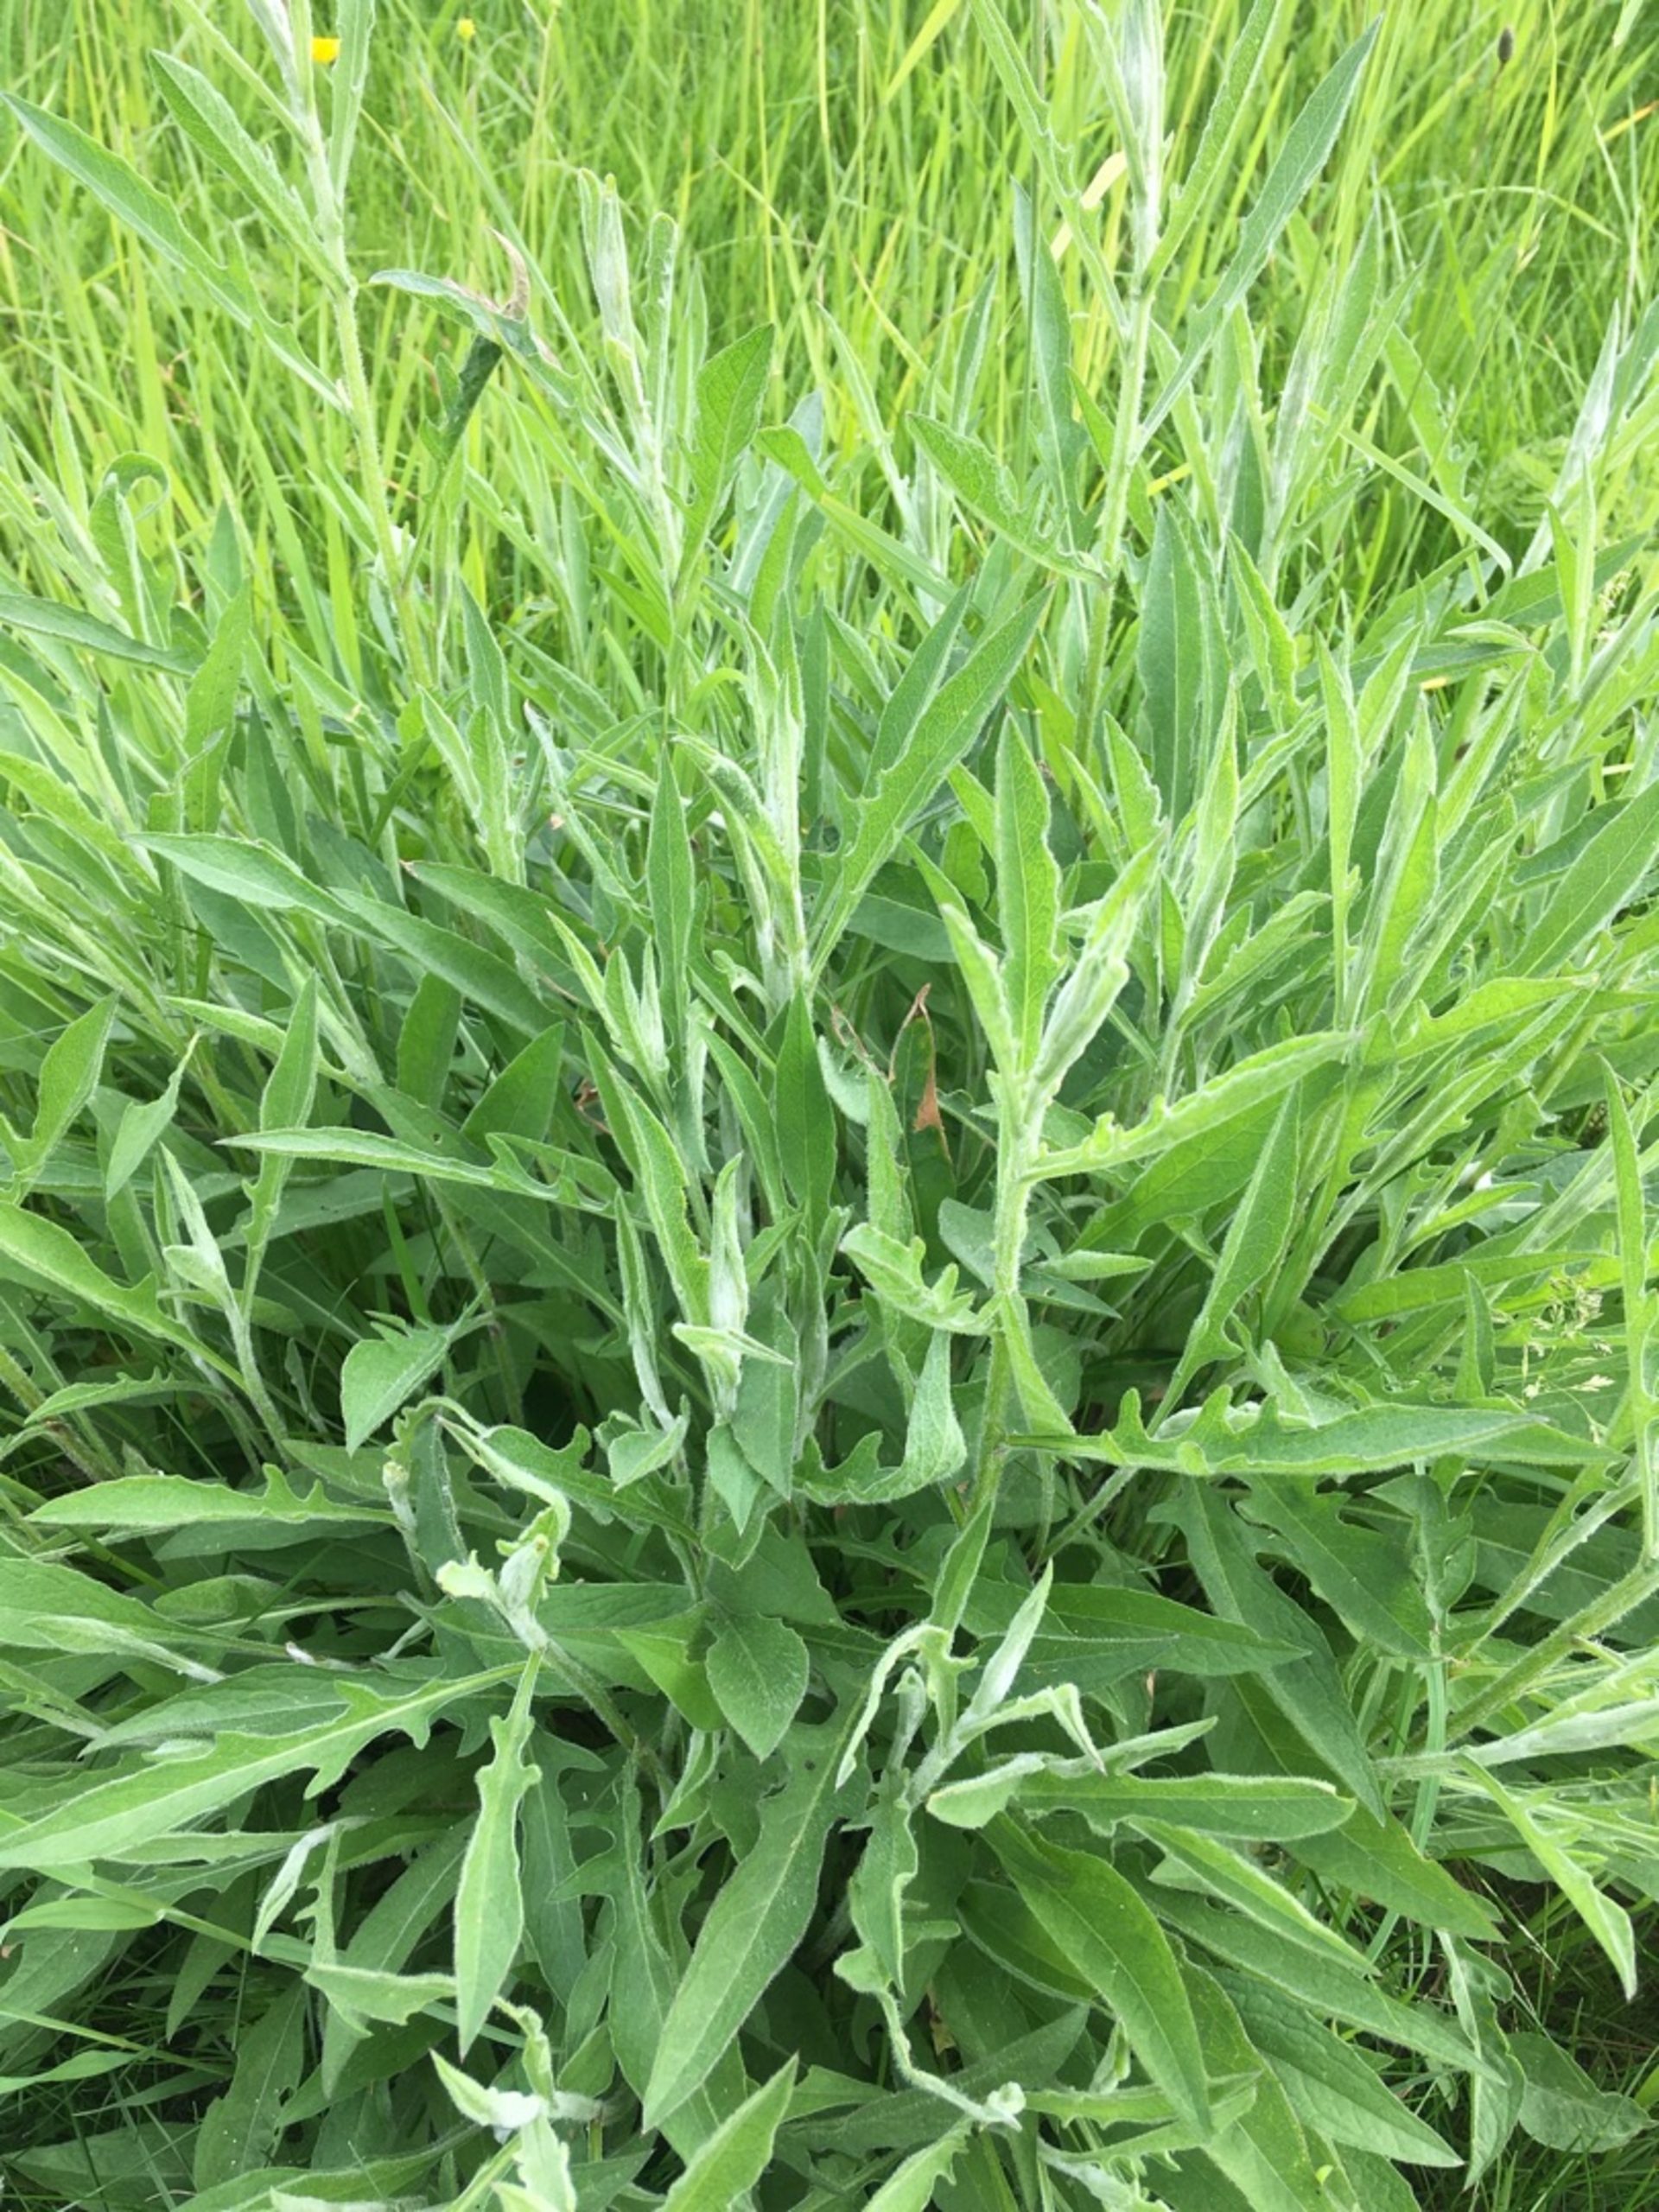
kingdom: Plantae
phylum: Tracheophyta
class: Magnoliopsida
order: Asterales
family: Asteraceae
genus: Centaurea
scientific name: Centaurea jacea
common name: Almindelig knopurt
